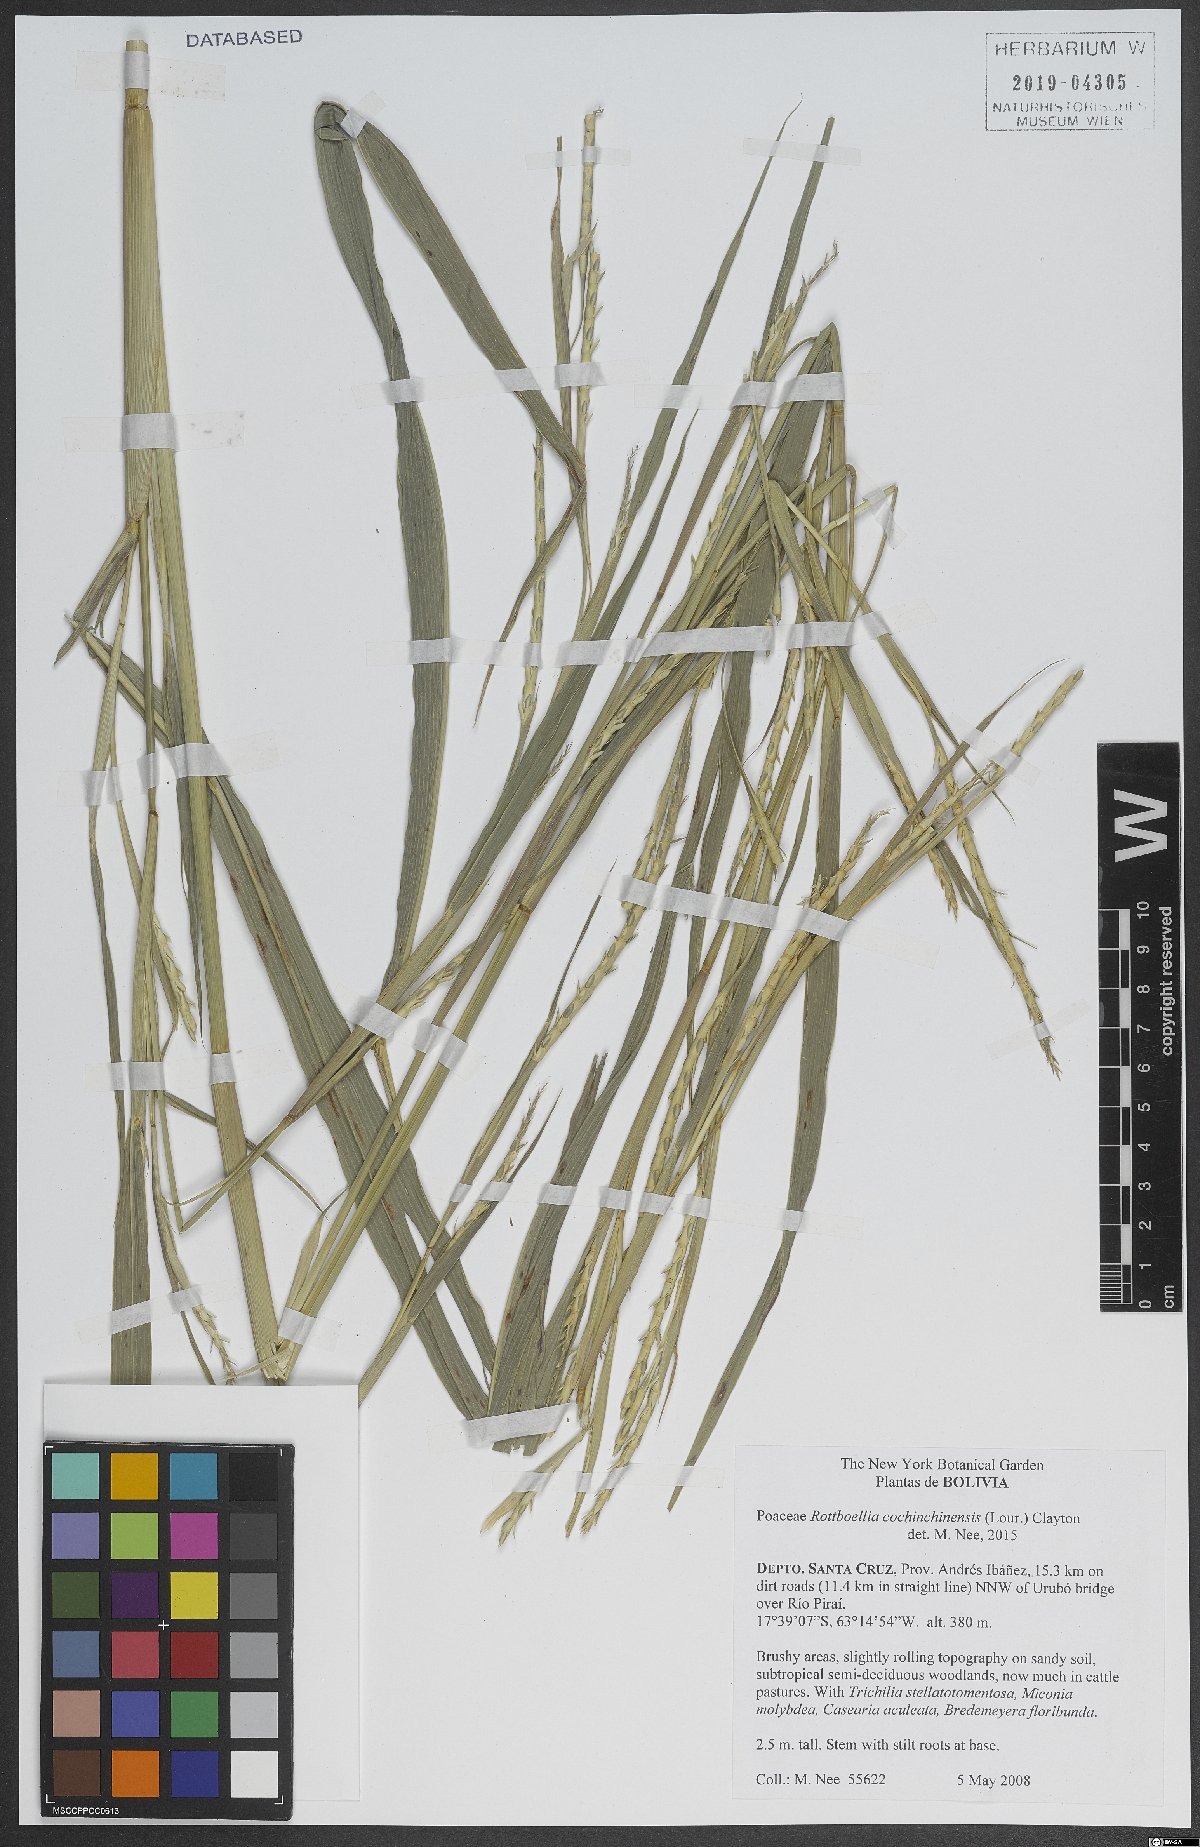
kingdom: Plantae
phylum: Tracheophyta
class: Liliopsida
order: Poales
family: Poaceae
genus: Rottboellia
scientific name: Rottboellia cochinchinensis
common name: Itchgrass
